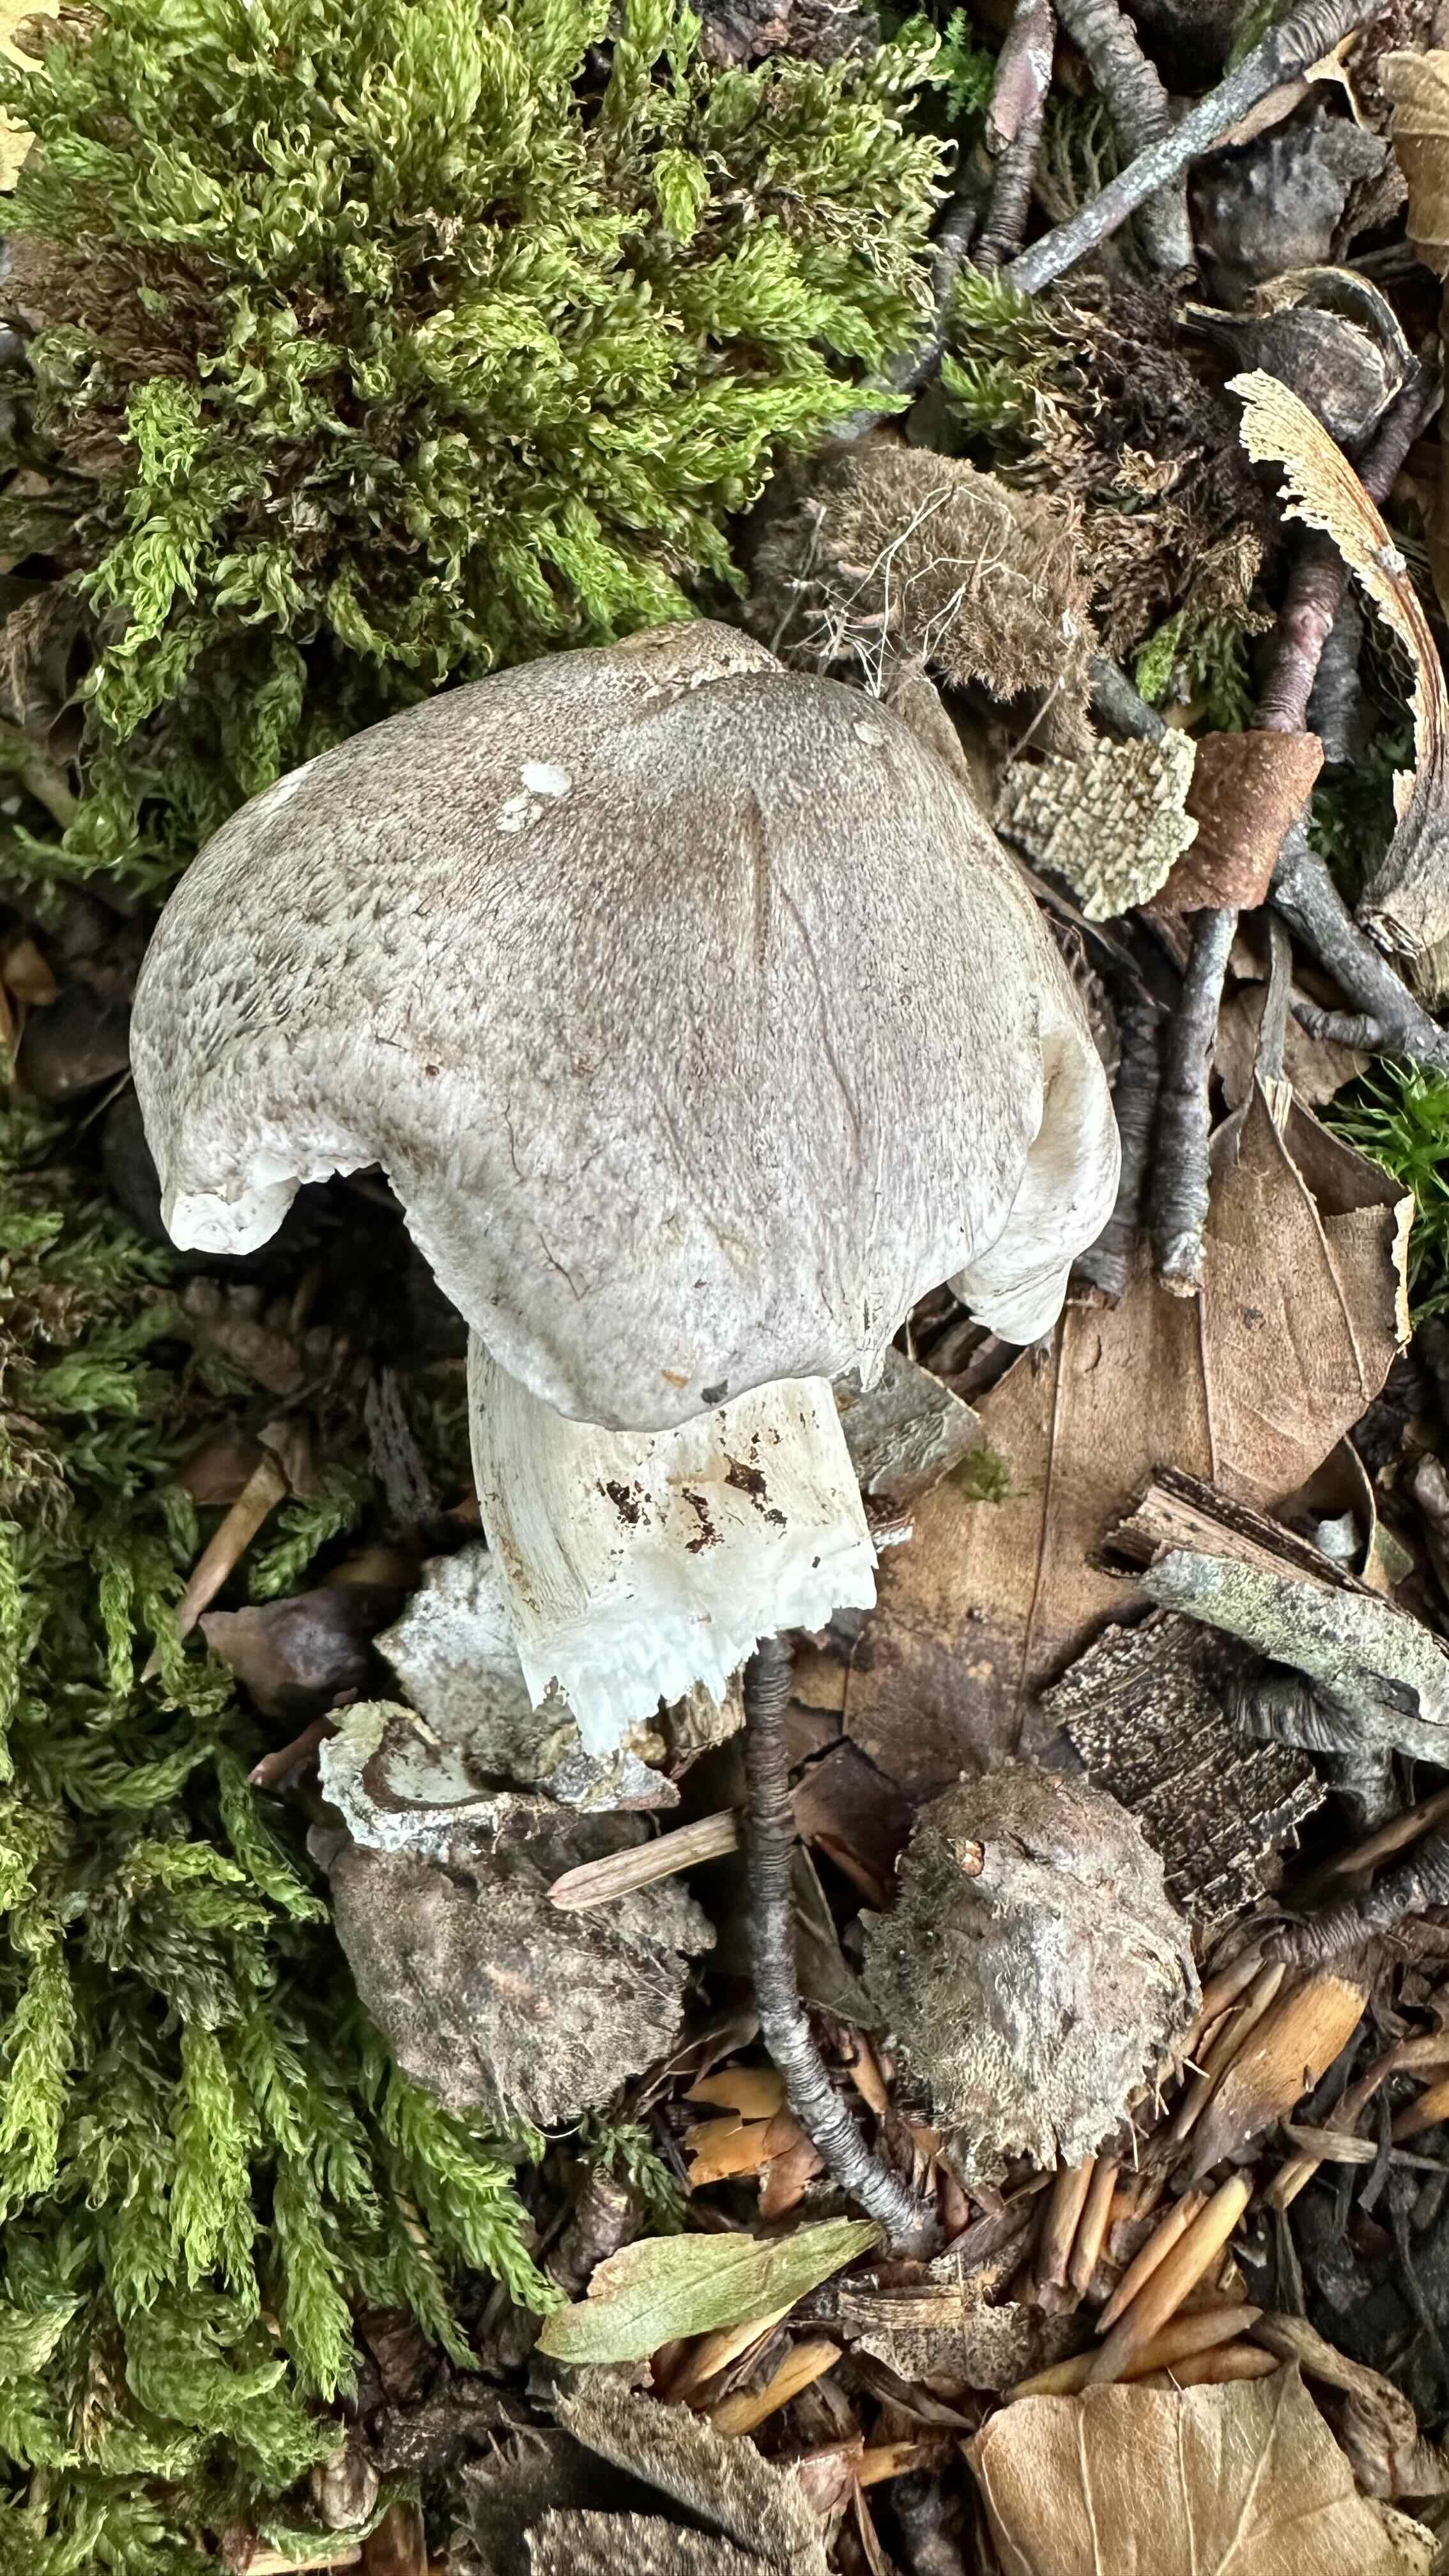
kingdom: Fungi
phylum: Basidiomycota
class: Agaricomycetes
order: Agaricales
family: Tricholomataceae
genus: Tricholoma
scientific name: Tricholoma sciodes
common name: stribet ridderhat
